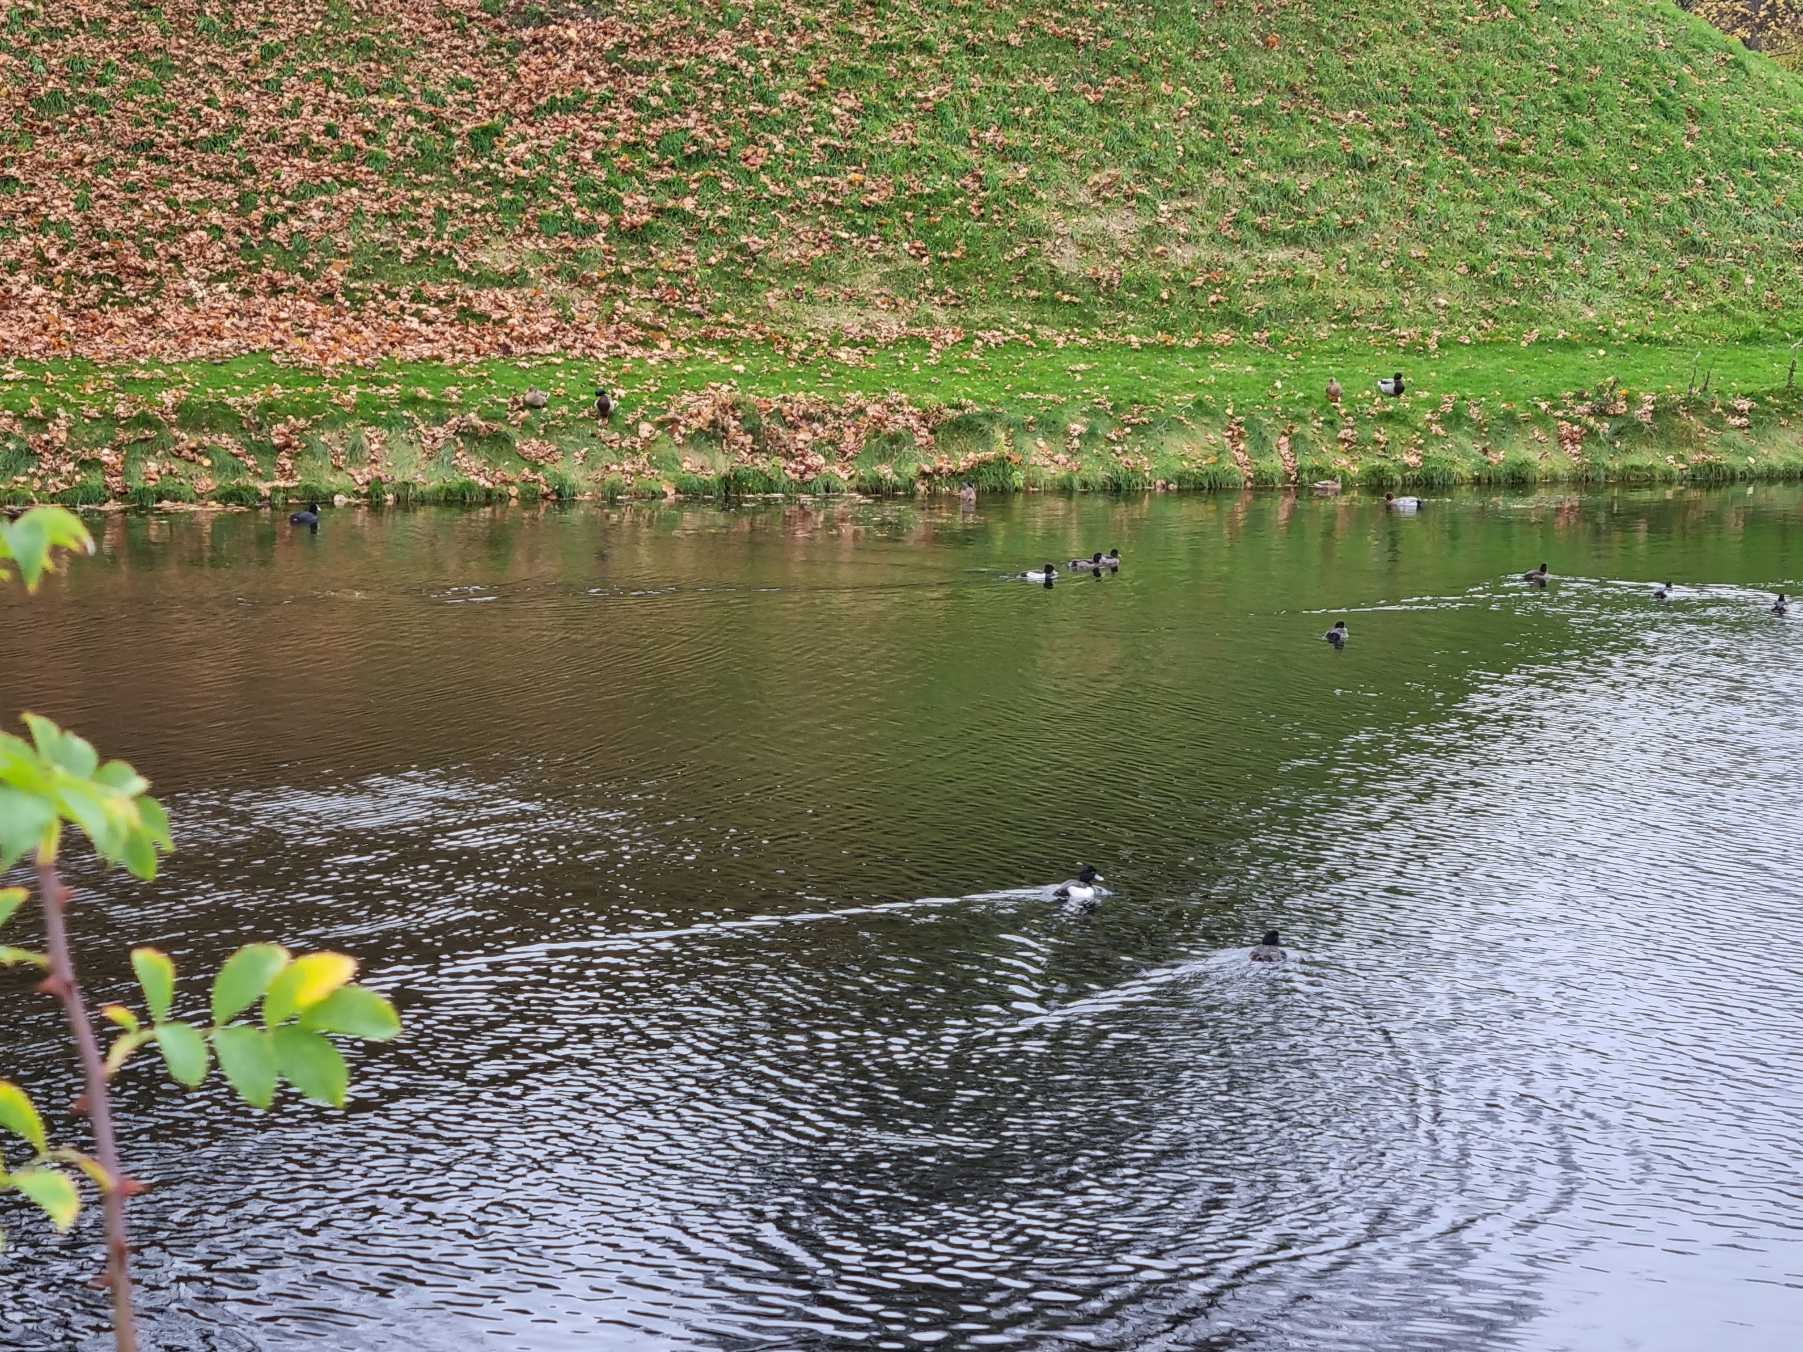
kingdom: Animalia
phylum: Chordata
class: Aves
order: Anseriformes
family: Anatidae
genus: Aythya
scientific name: Aythya fuligula
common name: Troldand
